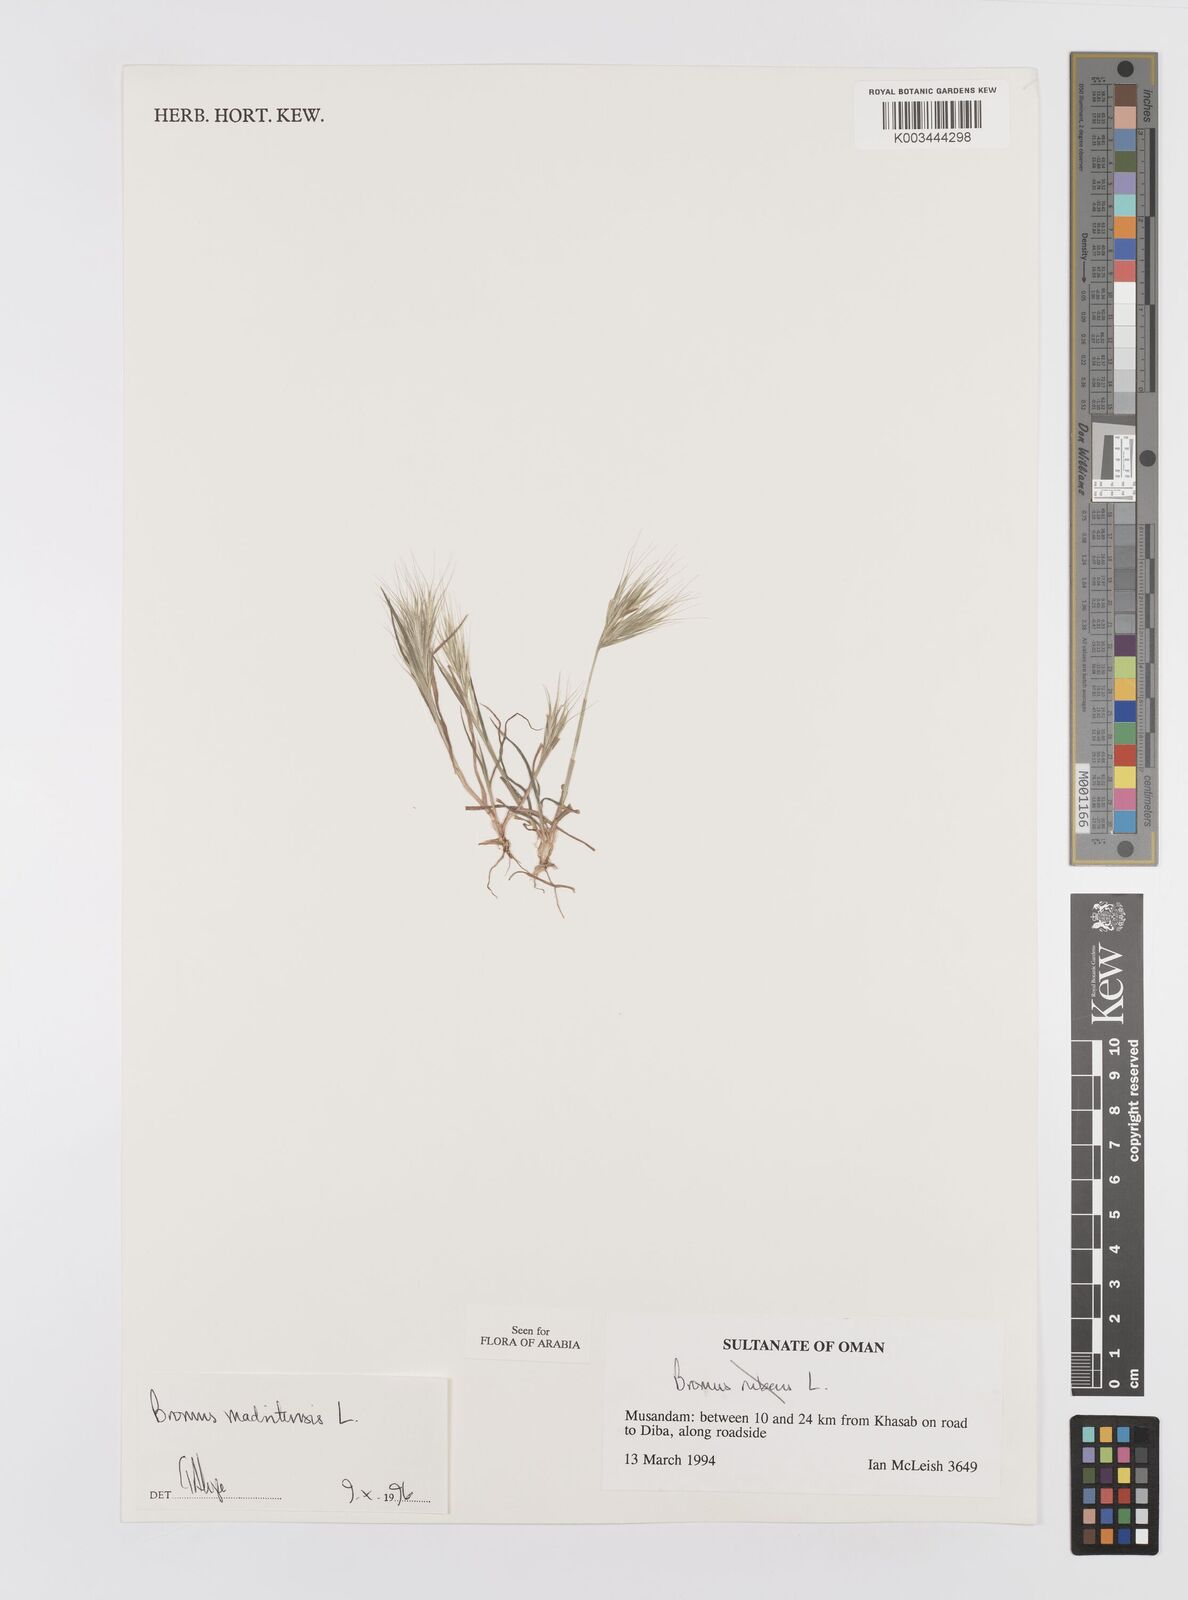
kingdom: Plantae
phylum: Tracheophyta
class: Liliopsida
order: Poales
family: Poaceae
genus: Bromus
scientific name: Bromus madritensis
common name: Compact brome
